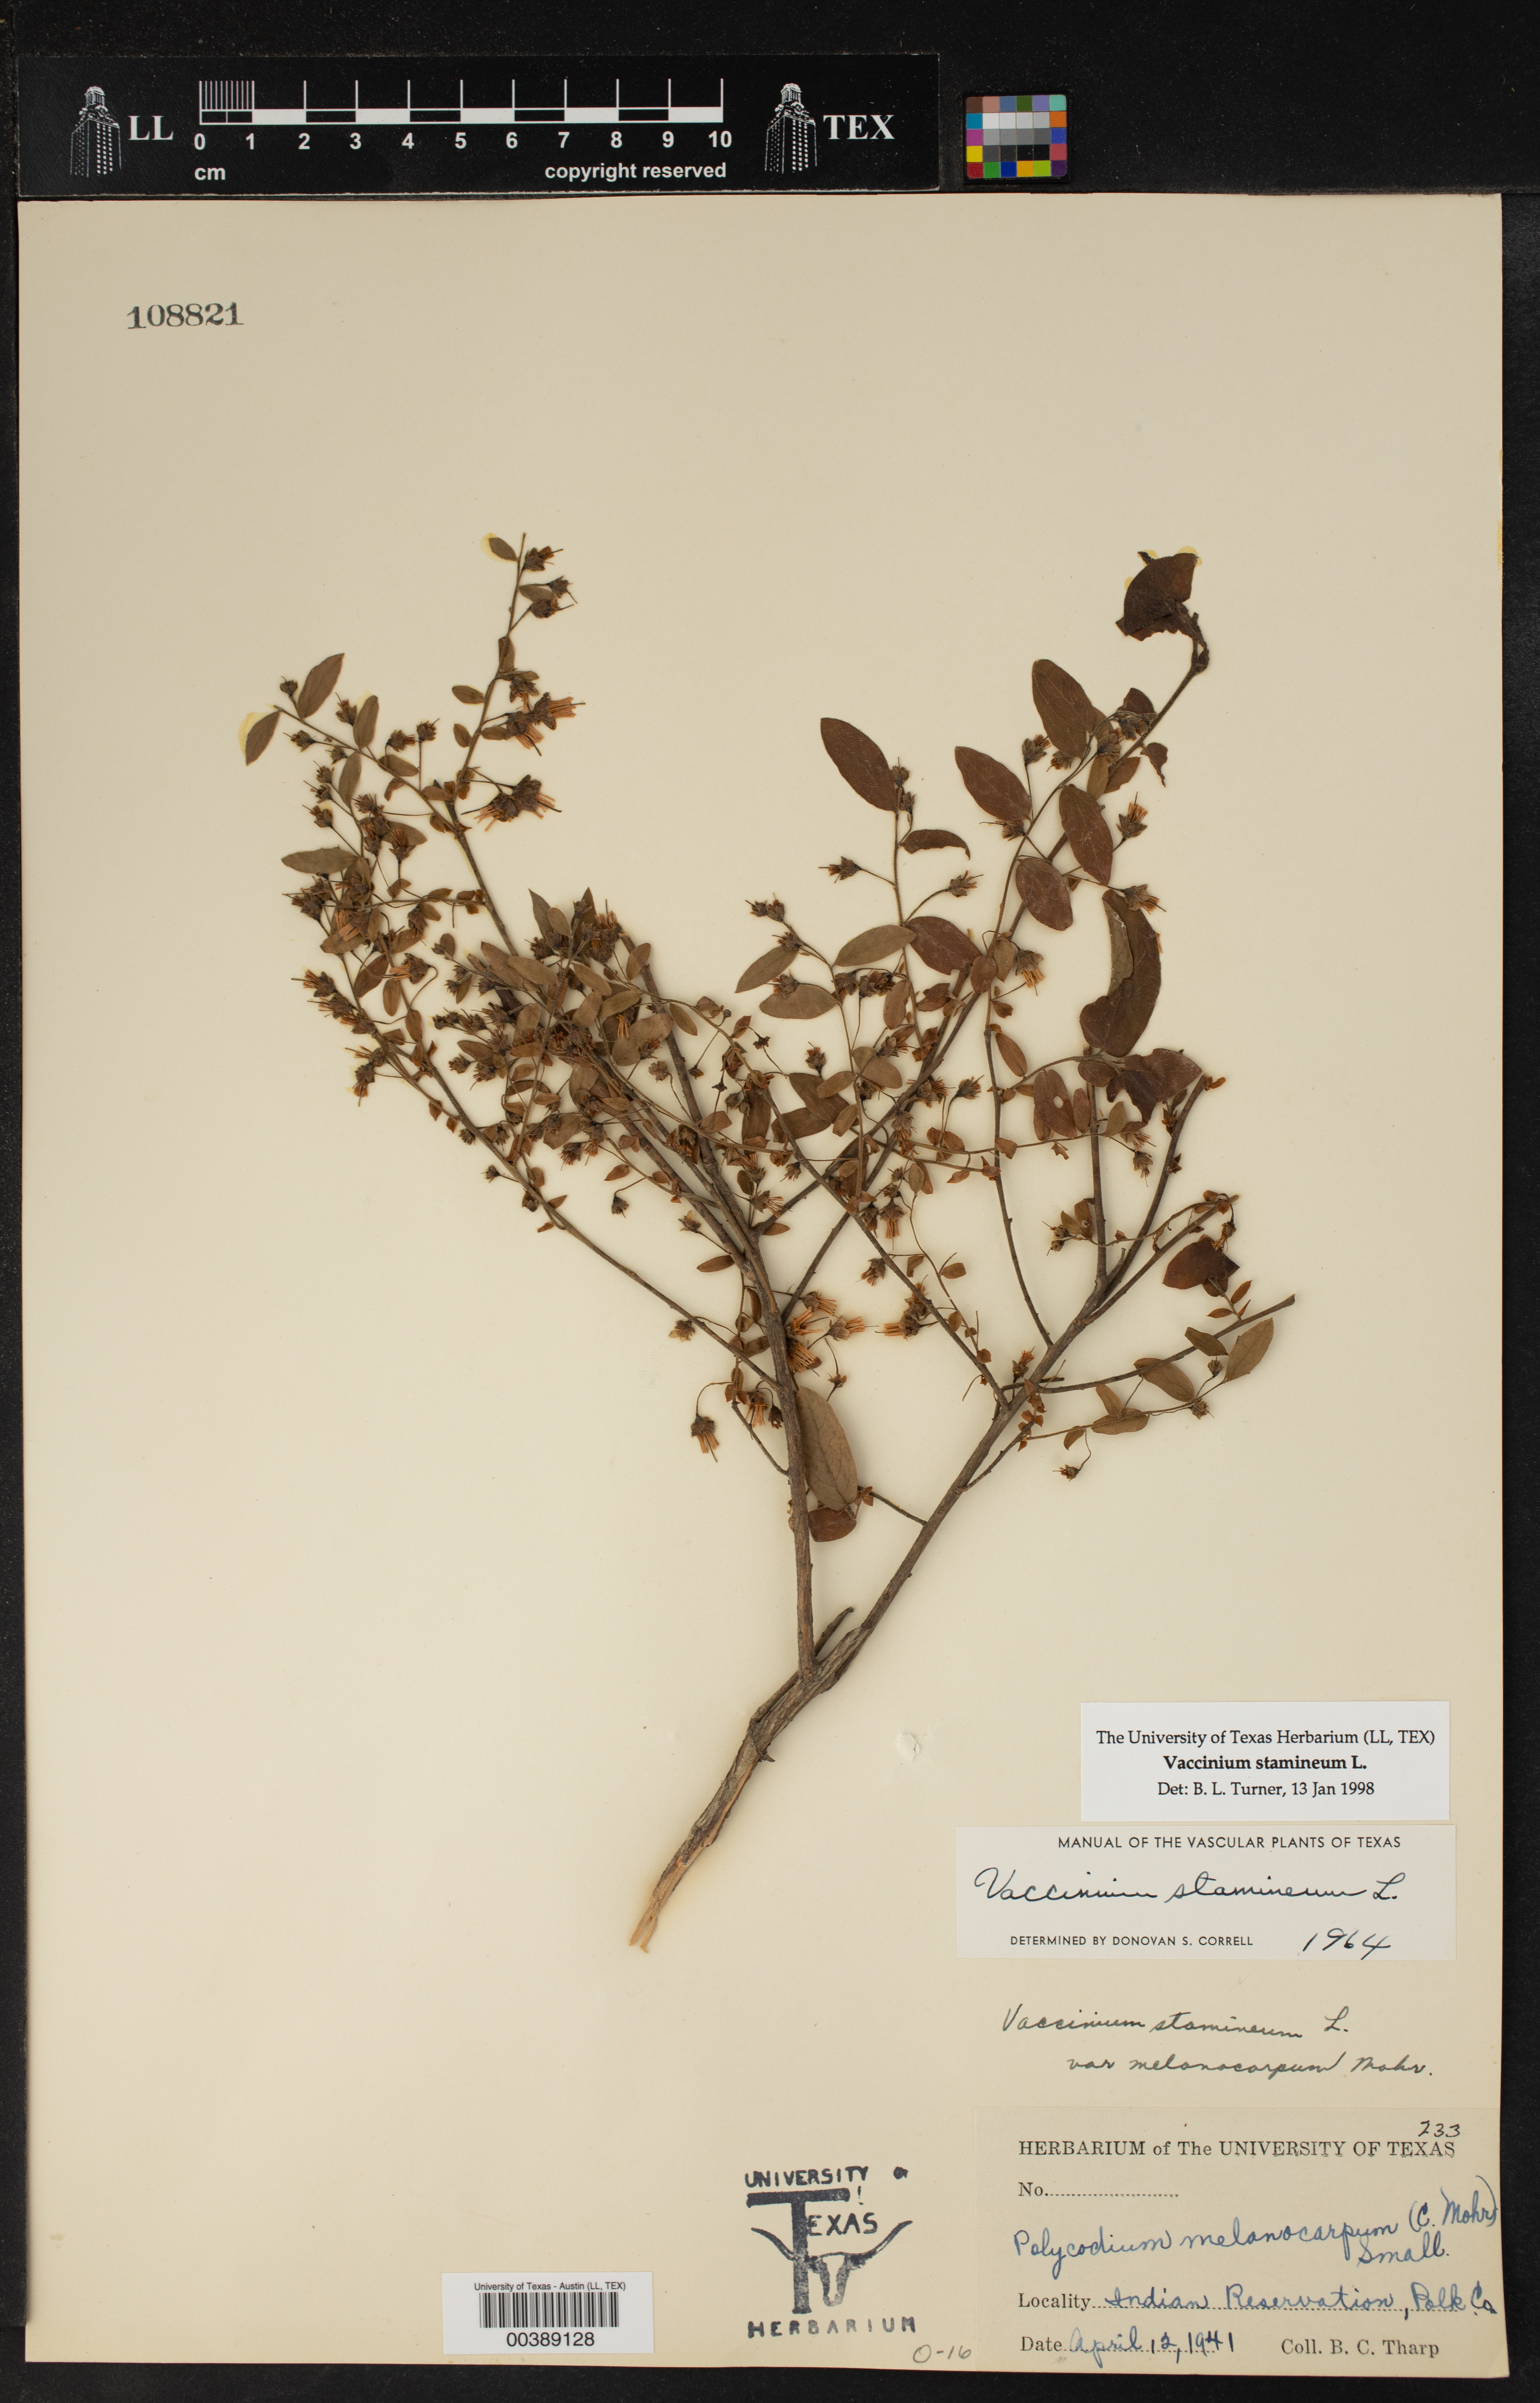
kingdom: Plantae
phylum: Tracheophyta
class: Magnoliopsida
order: Ericales
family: Ericaceae
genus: Vaccinium
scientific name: Vaccinium stamineum
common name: Deerberry
